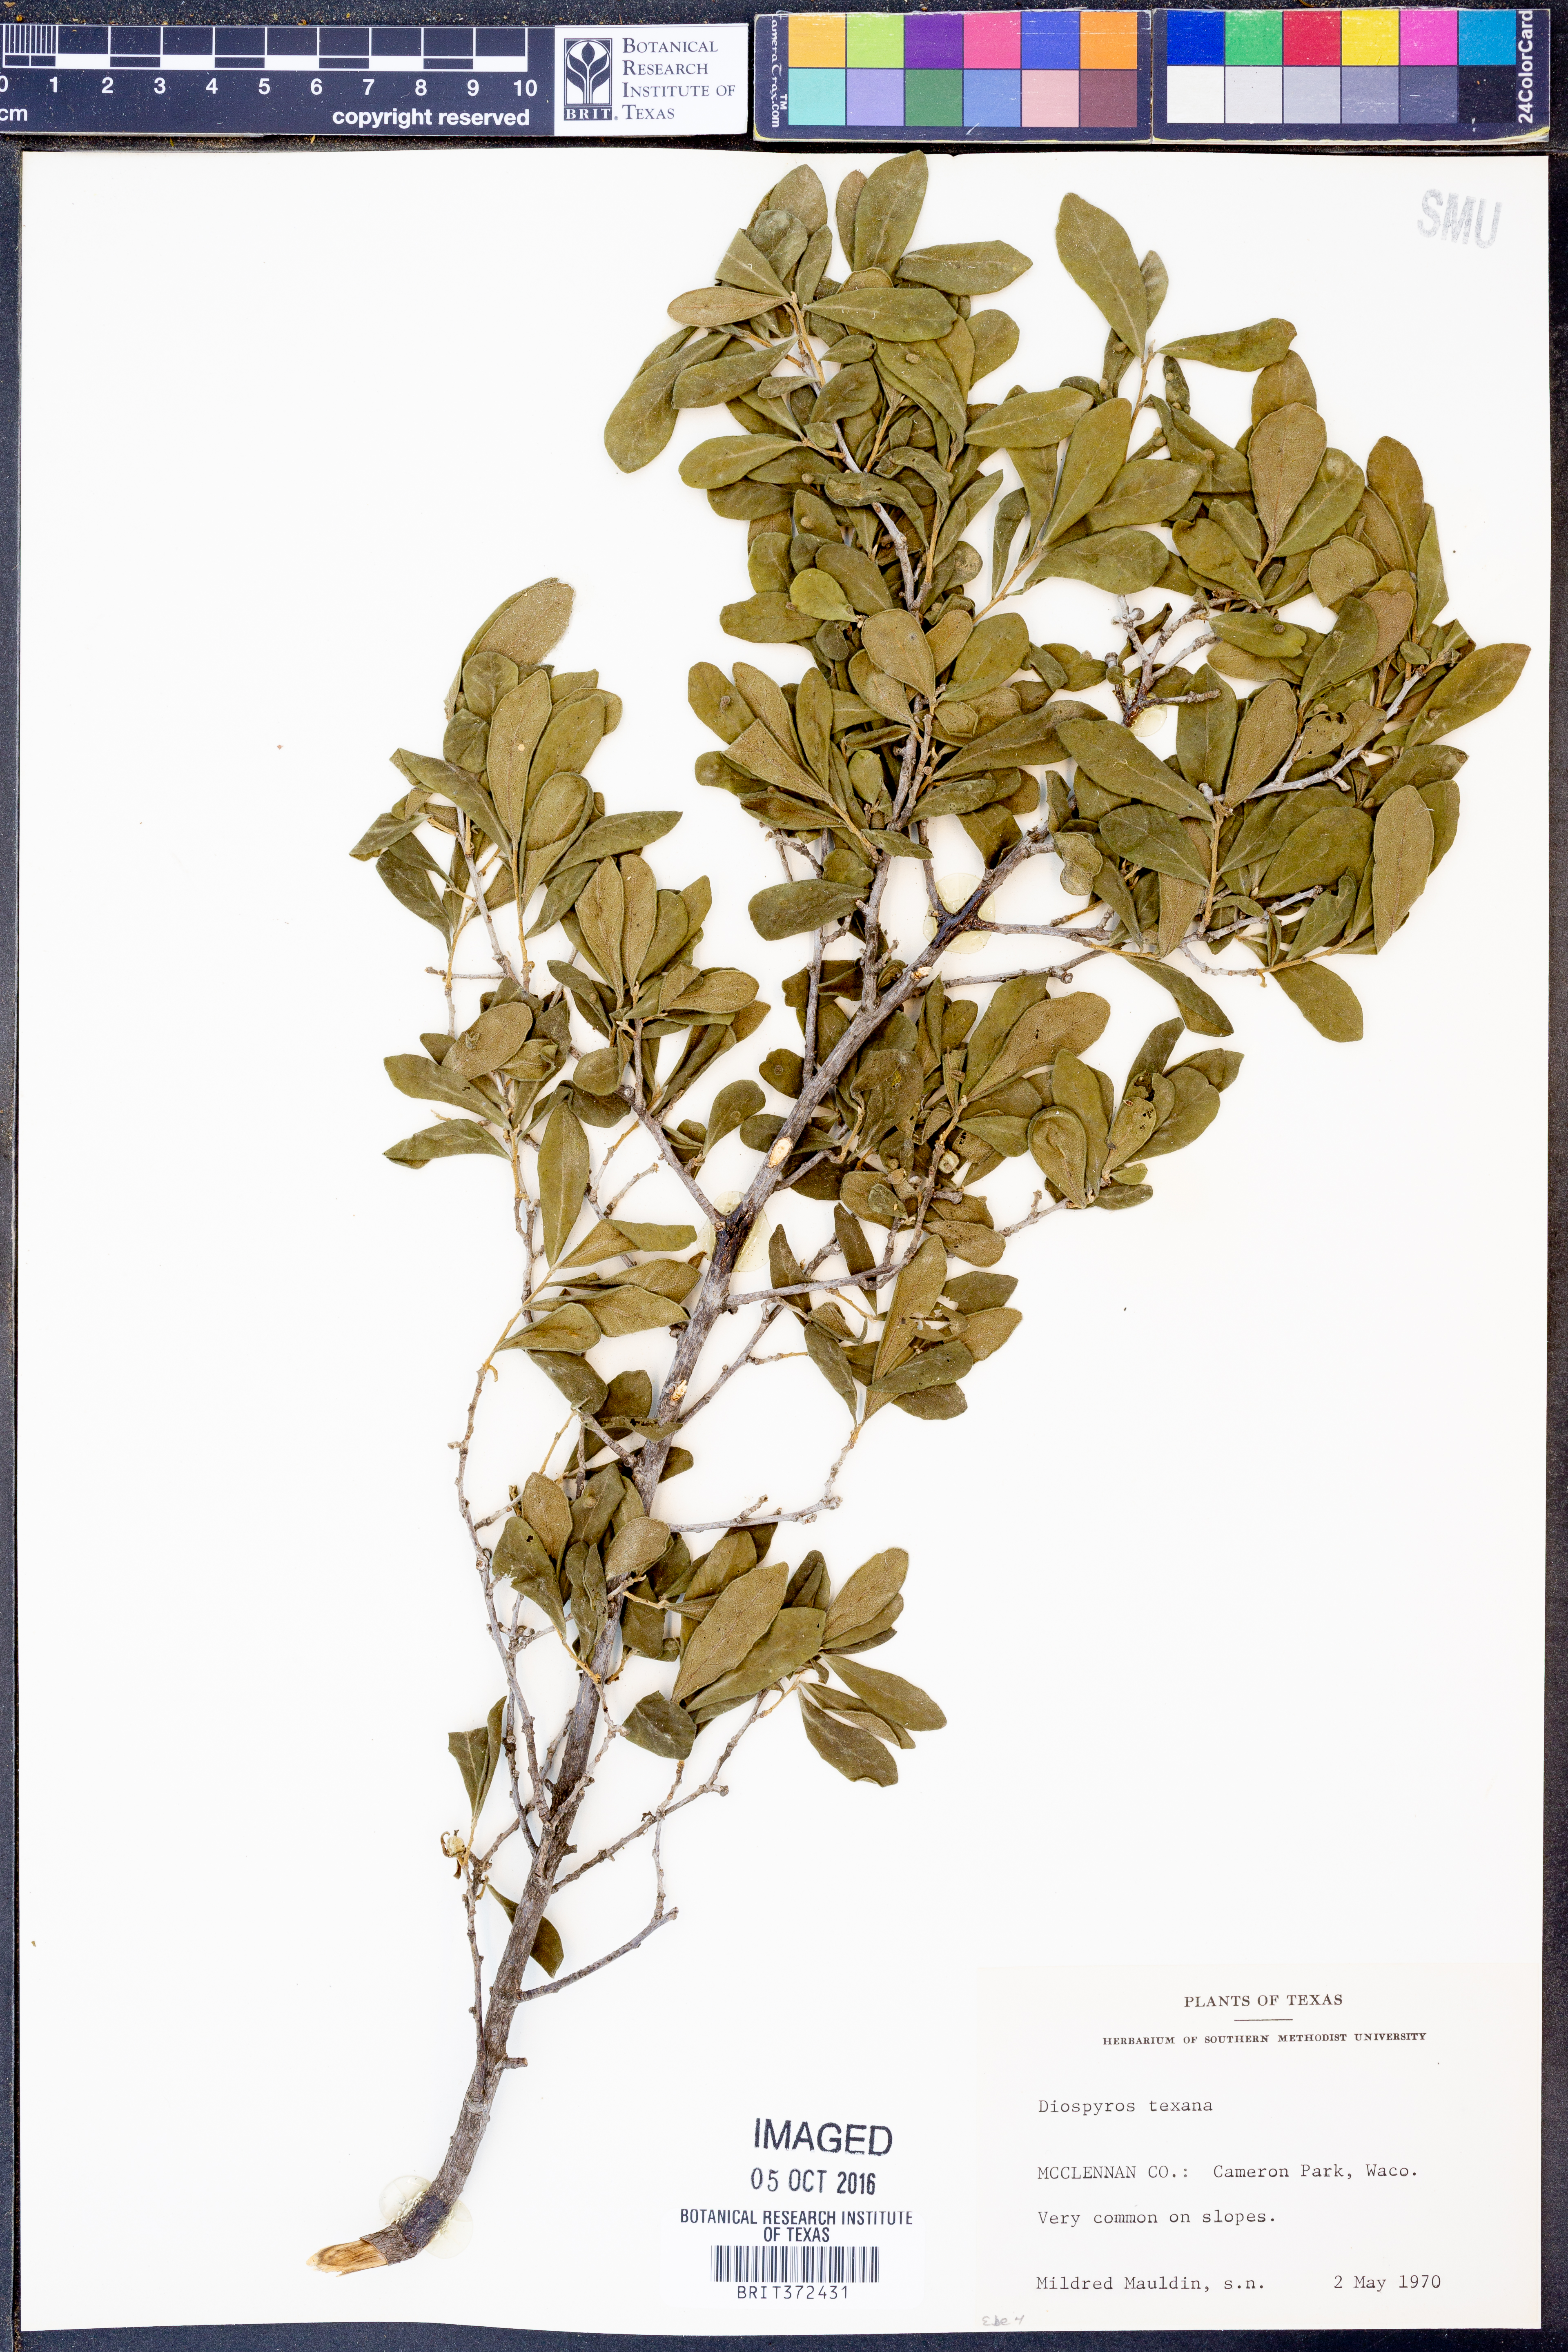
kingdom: Plantae
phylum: Tracheophyta
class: Magnoliopsida
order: Ericales
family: Ebenaceae
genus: Diospyros
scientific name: Diospyros texana
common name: Texas persimmon
